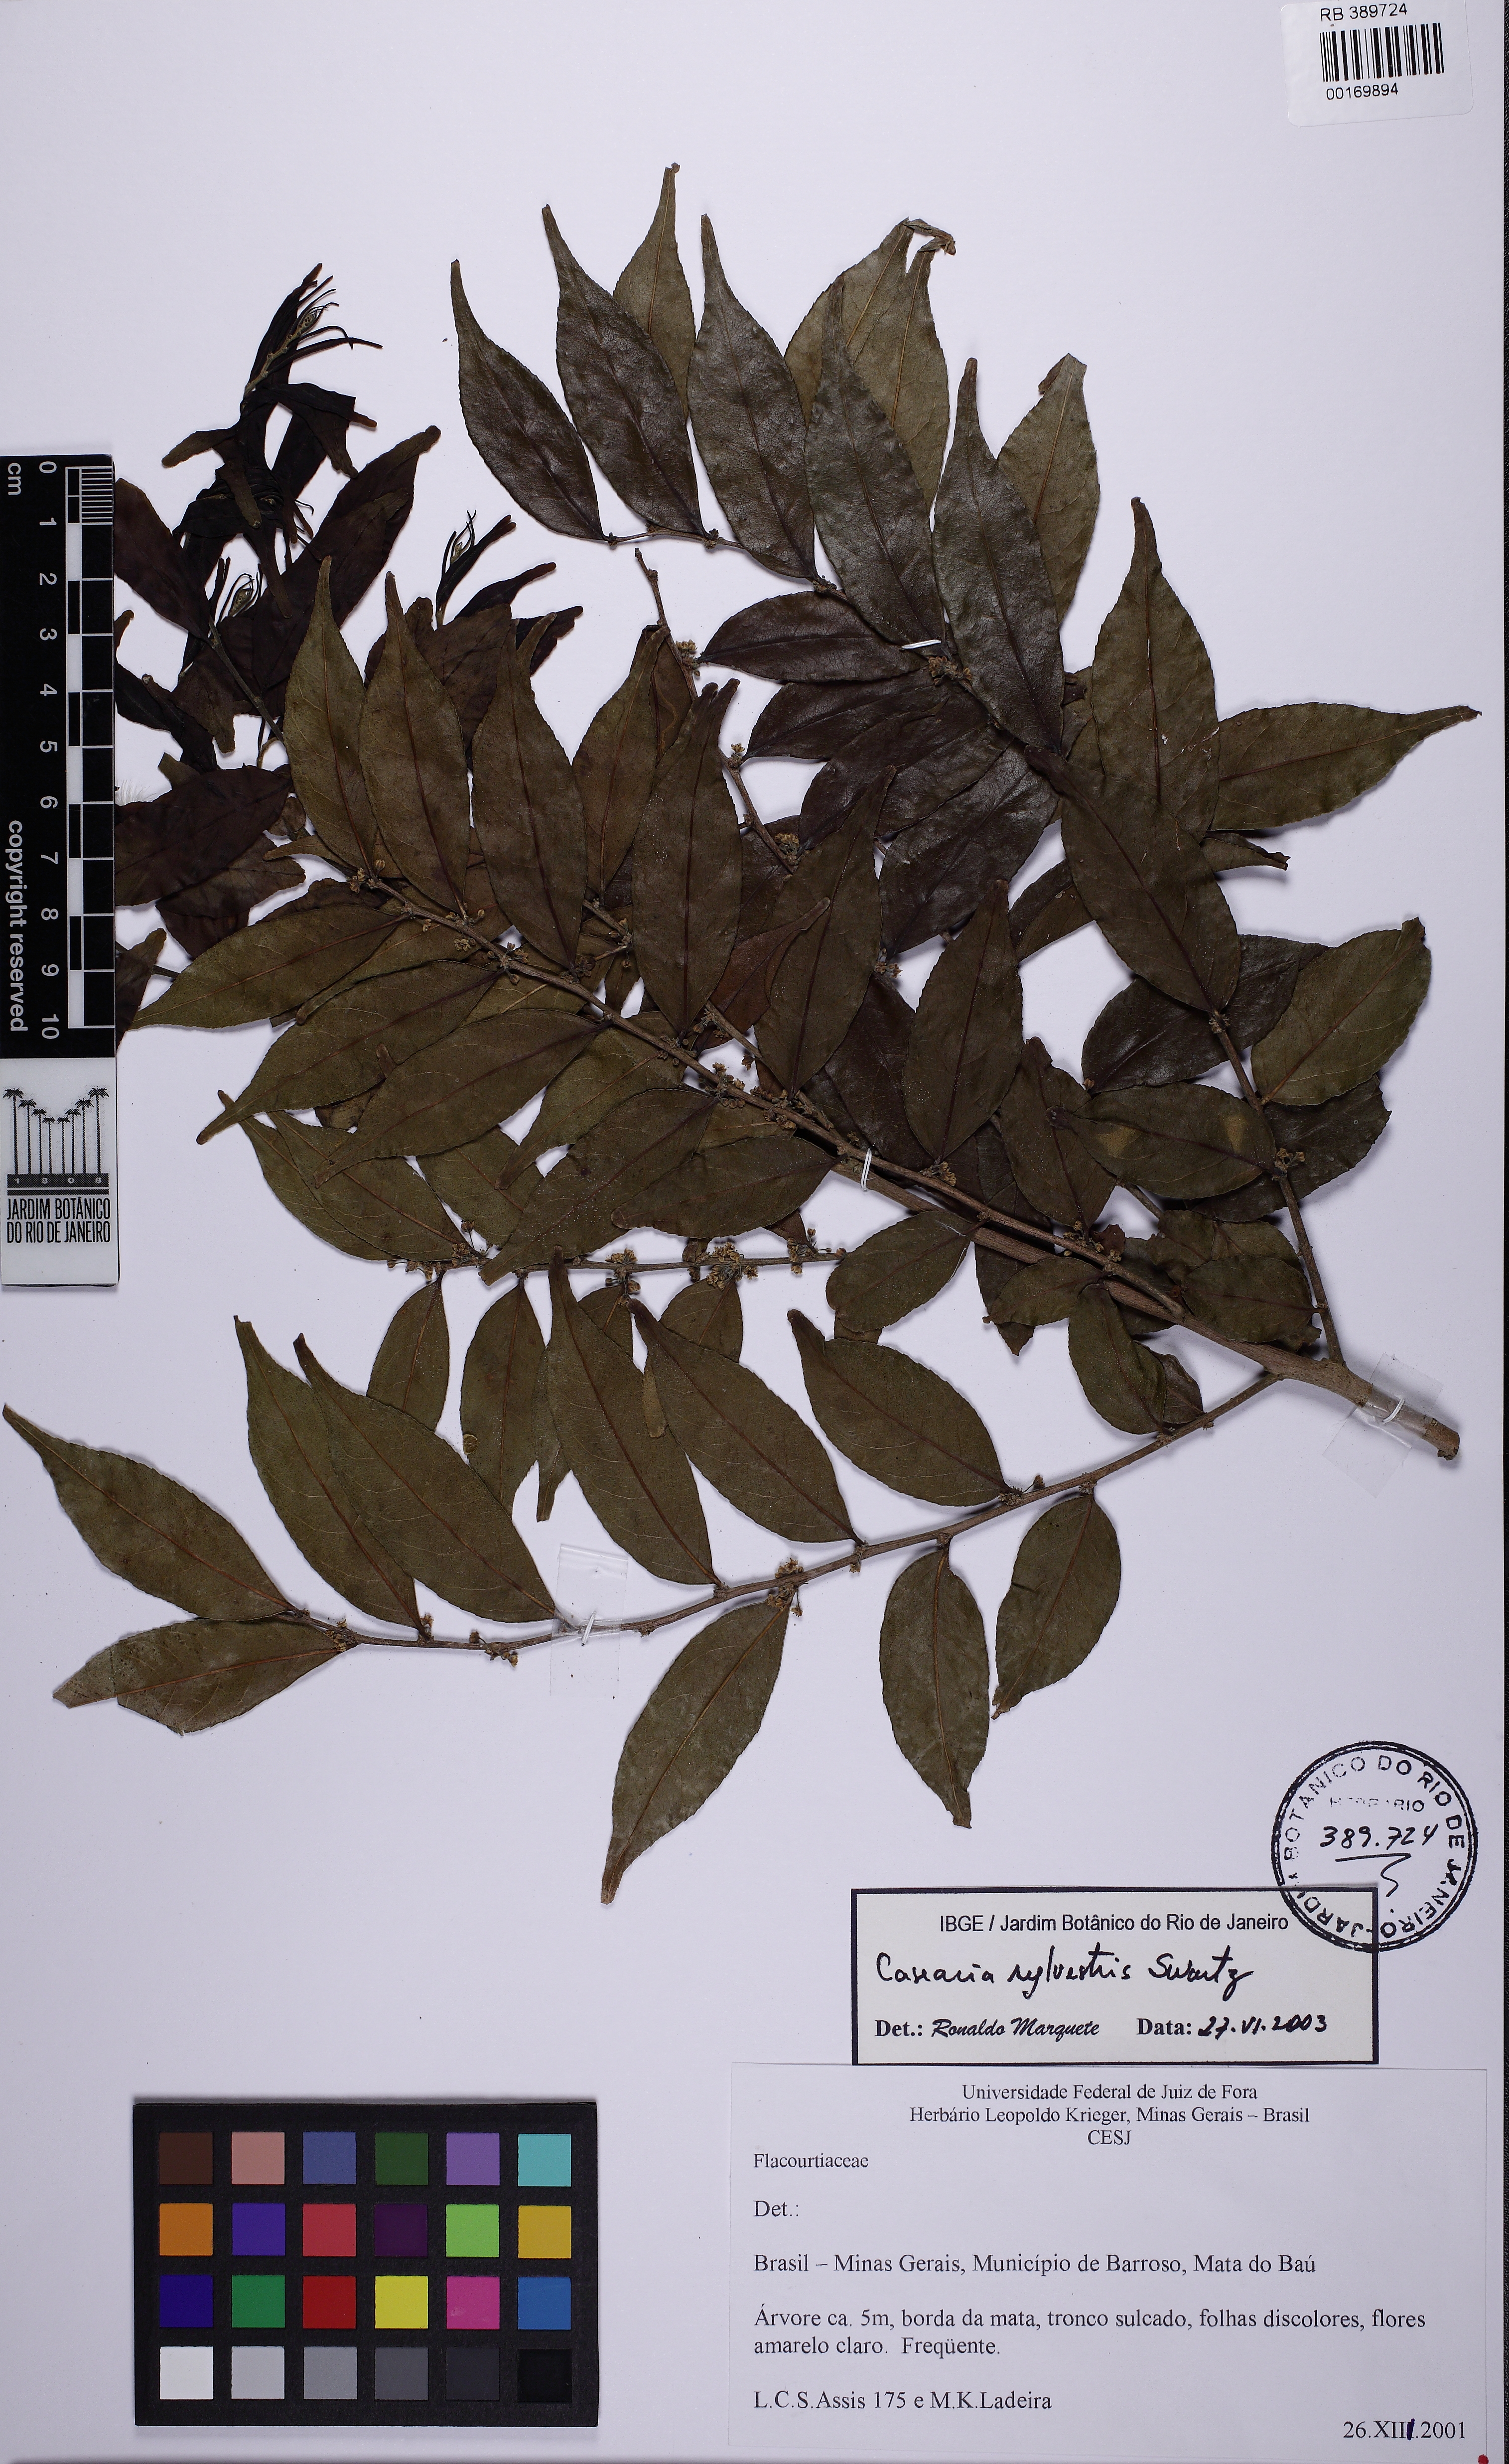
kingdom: Plantae
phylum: Tracheophyta
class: Magnoliopsida
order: Malpighiales
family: Salicaceae
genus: Casearia
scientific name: Casearia sylvestris
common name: Wild sage
